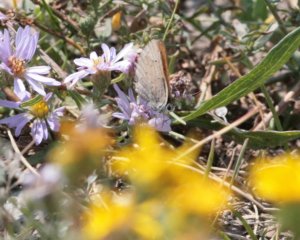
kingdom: Animalia
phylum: Arthropoda
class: Insecta
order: Lepidoptera
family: Sesiidae
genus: Sesia
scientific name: Sesia Lycaena helloides
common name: Purplish Copper
